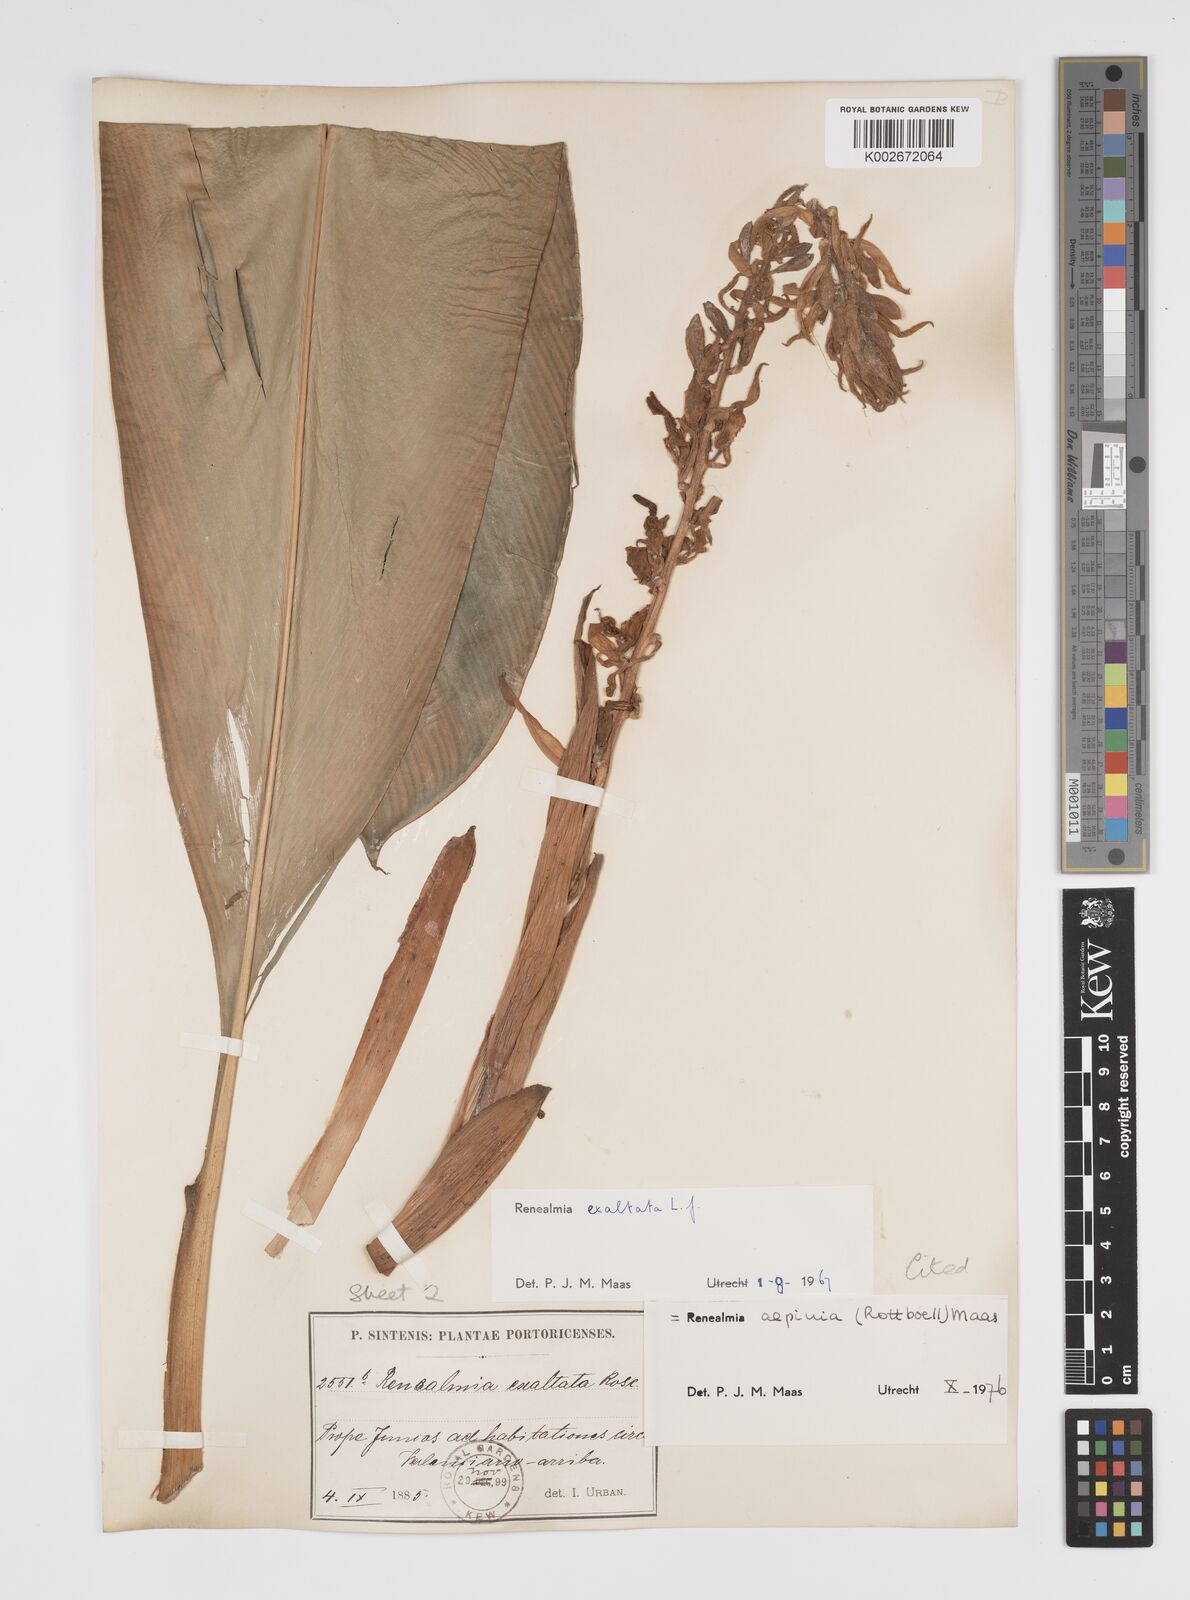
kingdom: Plantae
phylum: Tracheophyta
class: Liliopsida
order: Zingiberales
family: Zingiberaceae
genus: Renealmia
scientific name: Renealmia alpinia
